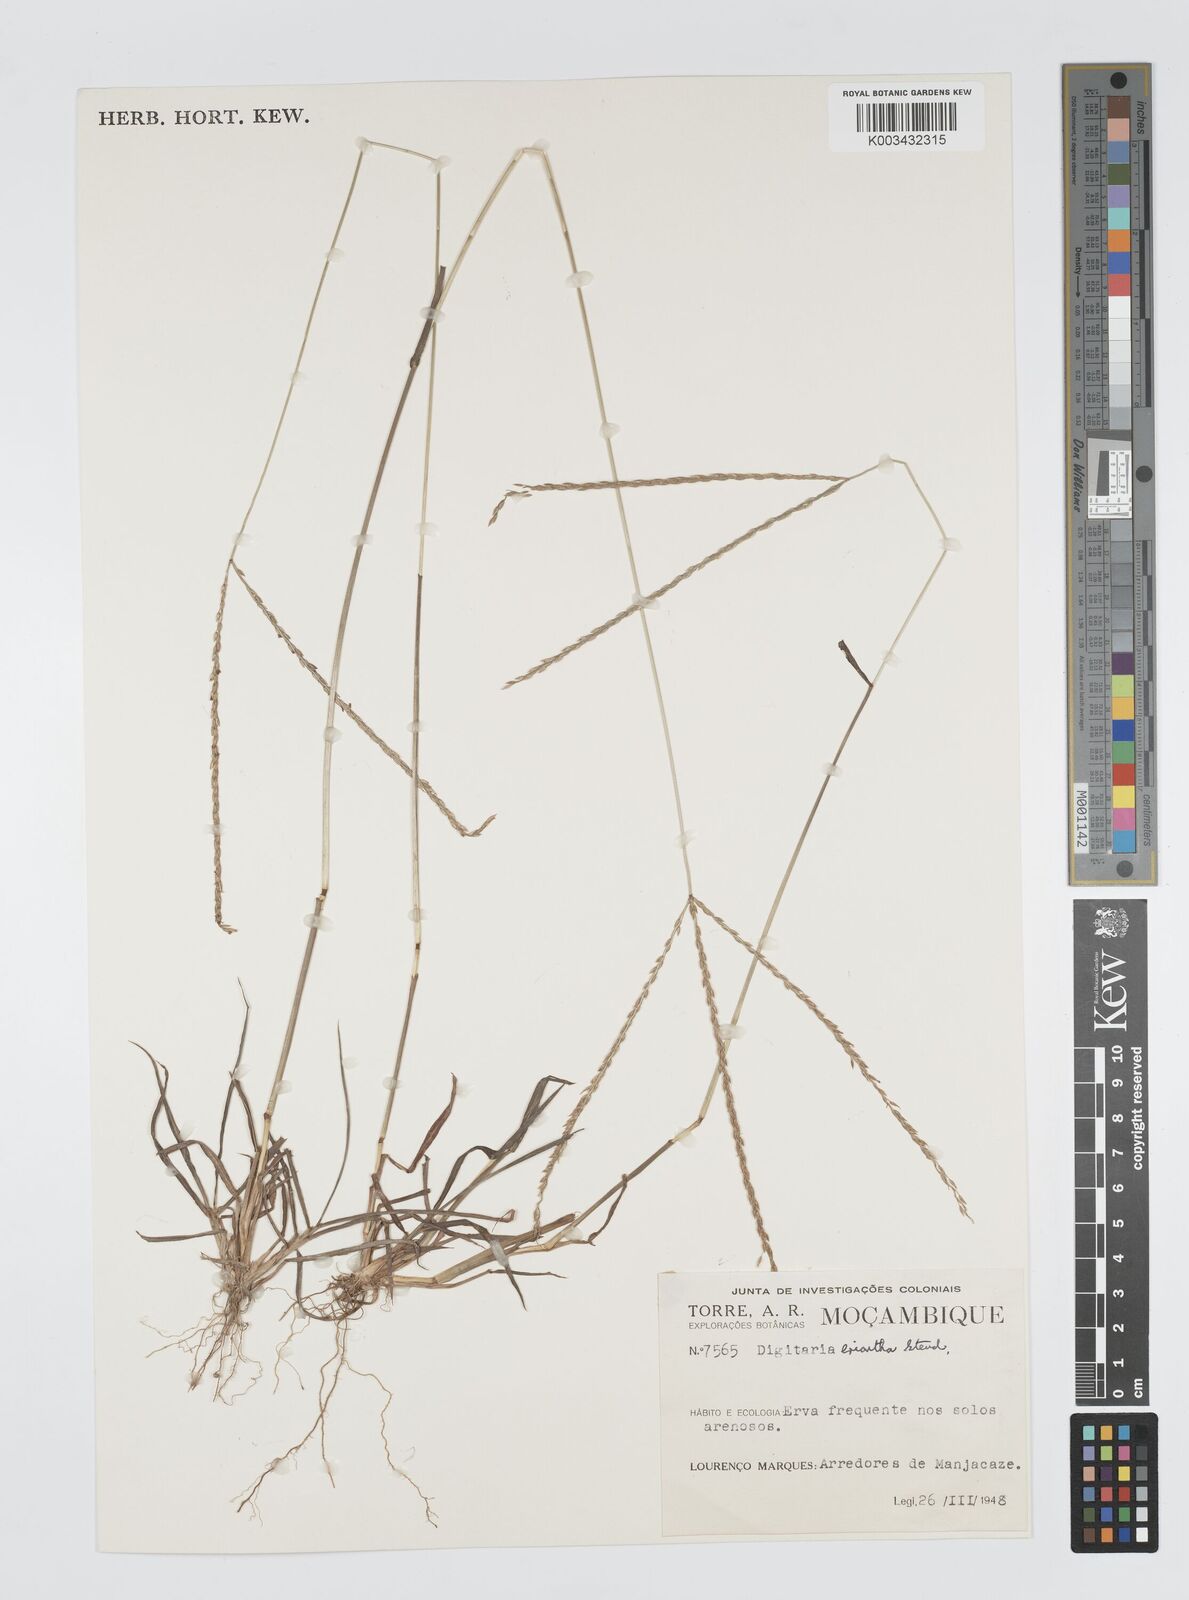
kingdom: Plantae
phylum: Tracheophyta
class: Liliopsida
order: Poales
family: Poaceae
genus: Digitaria
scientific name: Digitaria eriantha
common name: Digitgrass
